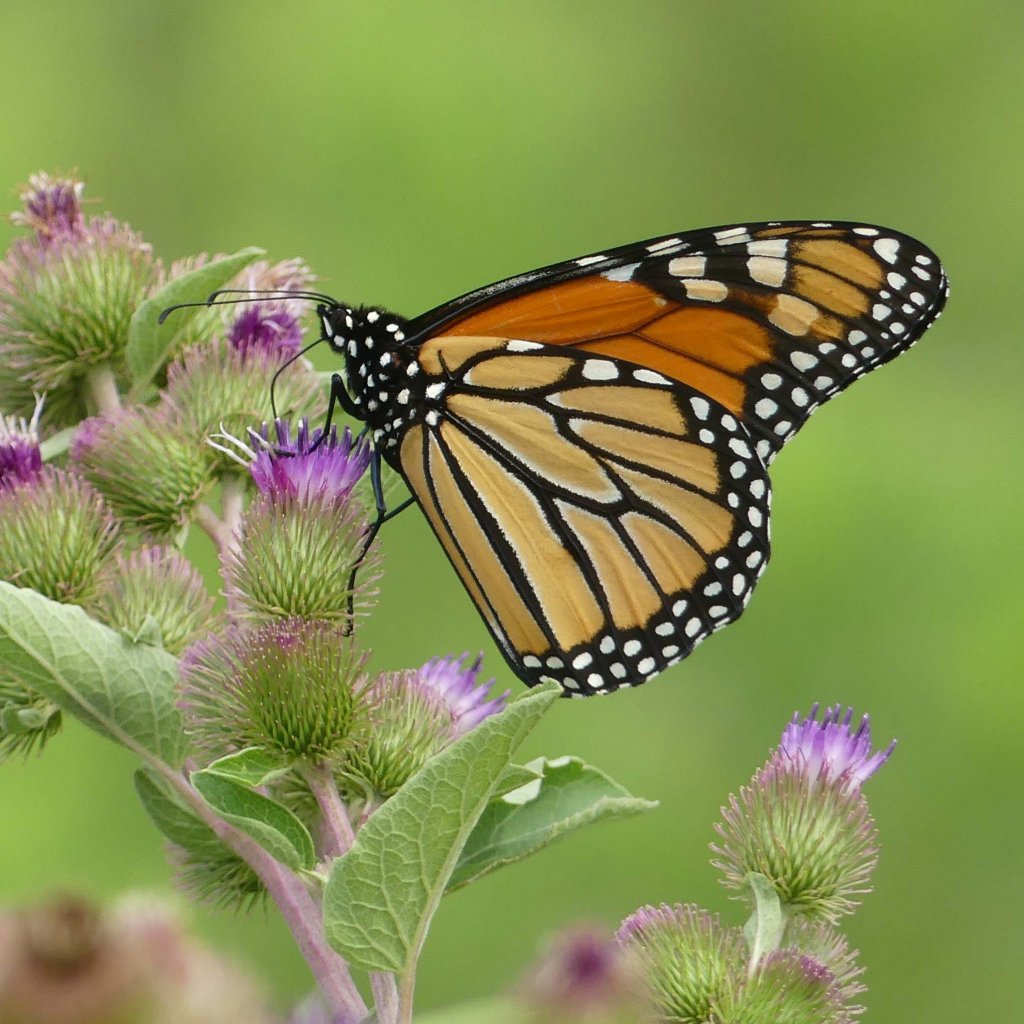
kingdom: Animalia
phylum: Arthropoda
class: Insecta
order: Lepidoptera
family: Nymphalidae
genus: Danaus
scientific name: Danaus plexippus
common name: Monarch
